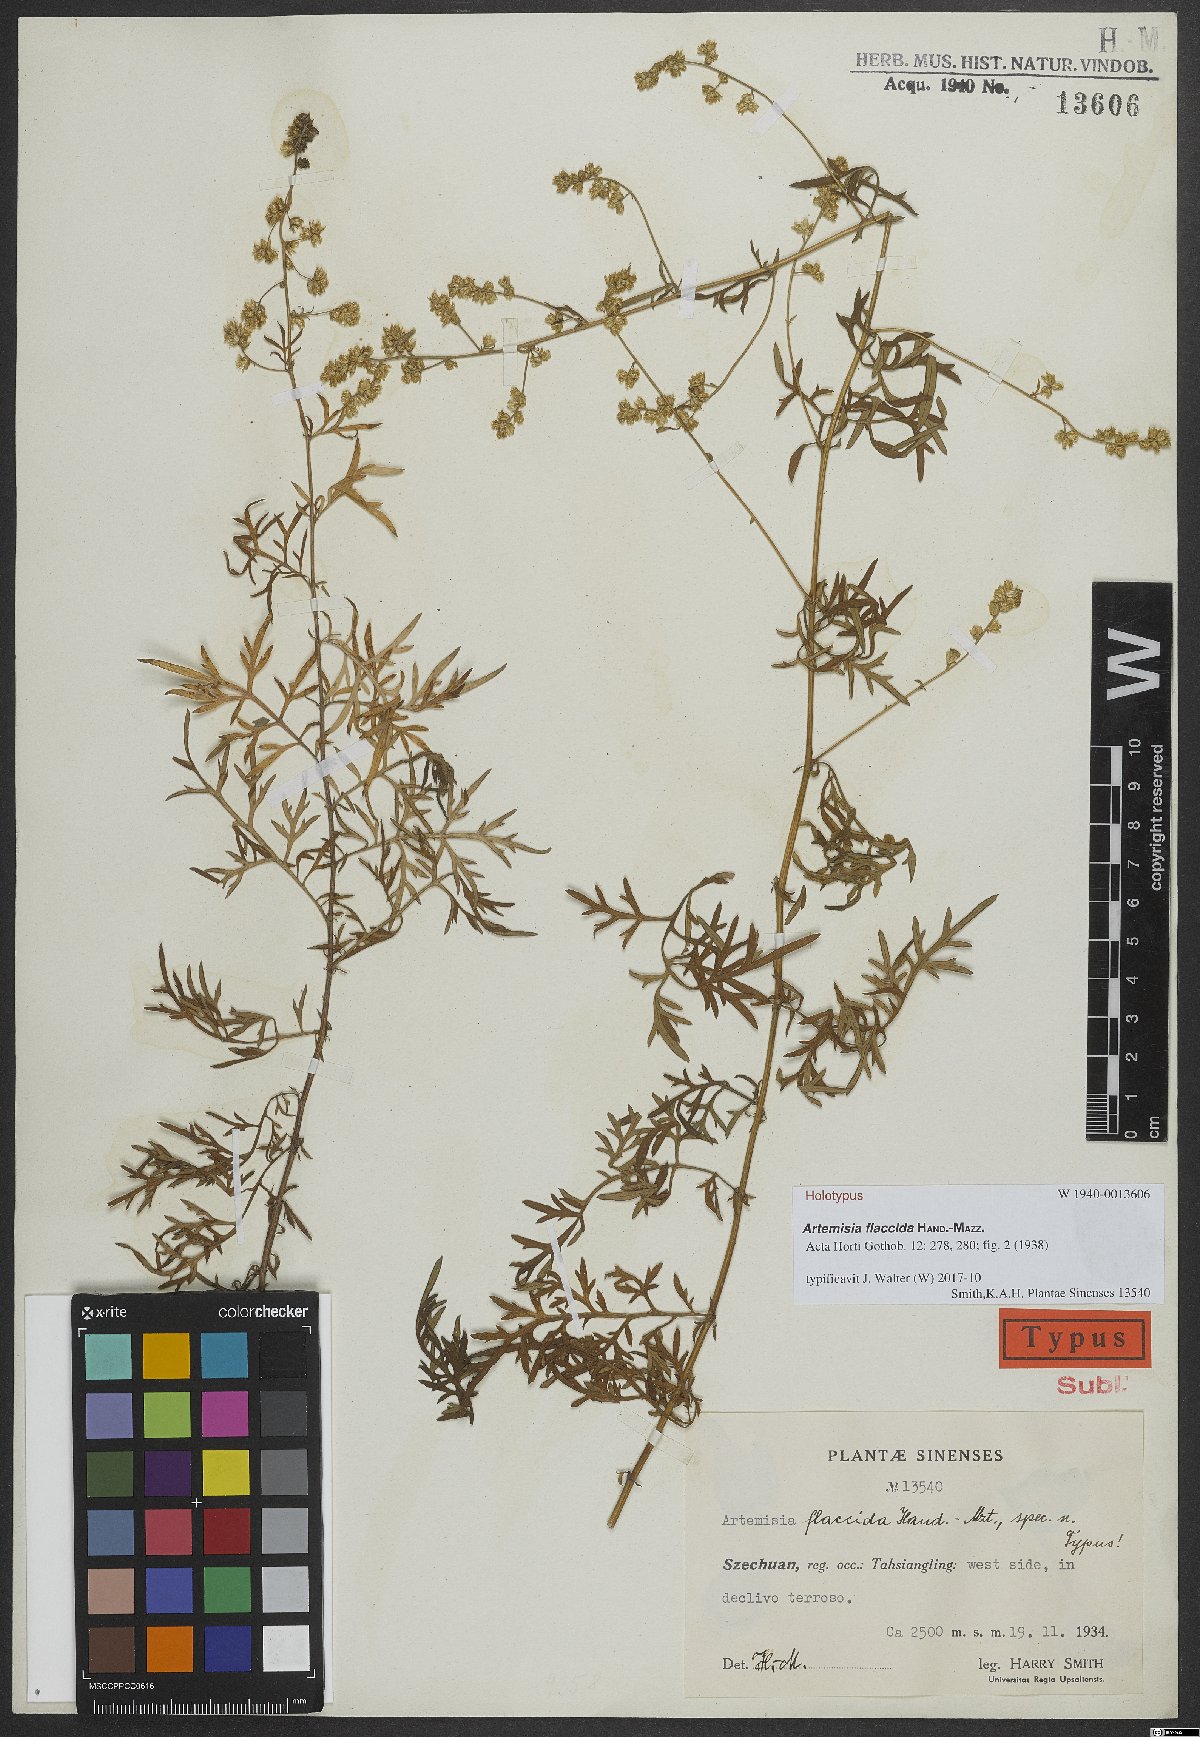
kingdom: Plantae
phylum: Tracheophyta
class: Magnoliopsida
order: Asterales
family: Asteraceae
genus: Artemisia
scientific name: Artemisia fulgens
